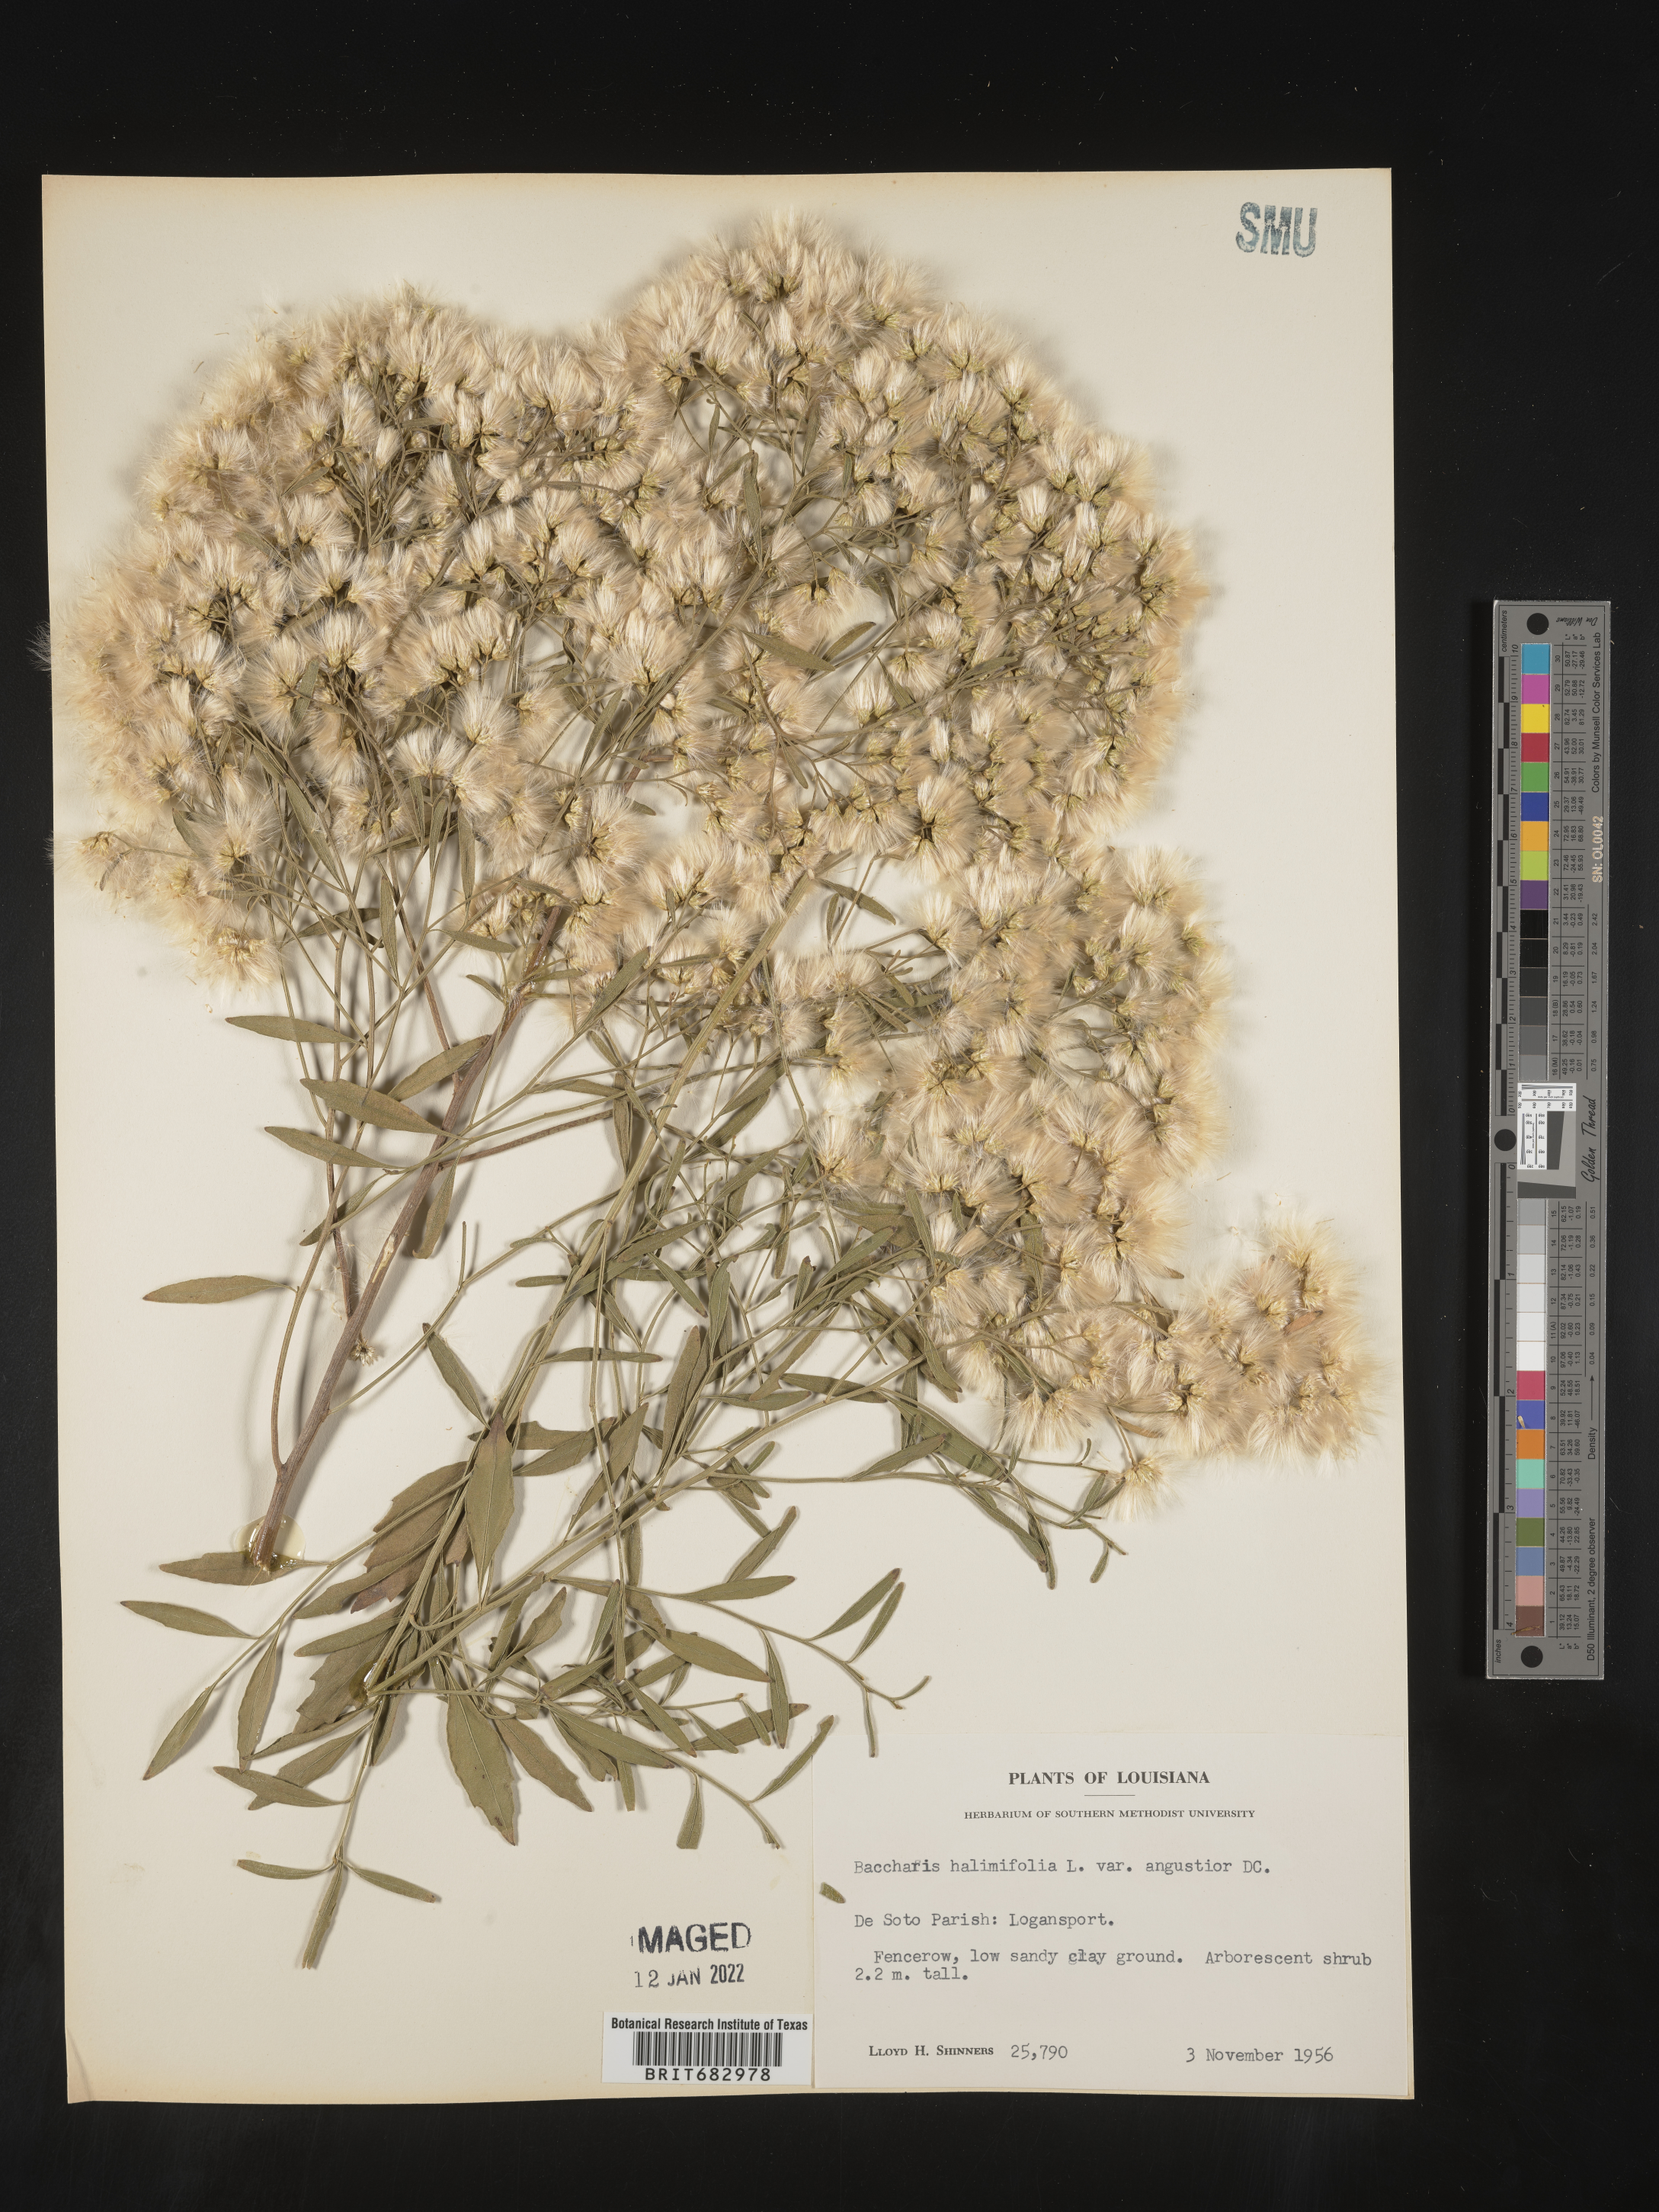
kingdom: Plantae
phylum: Tracheophyta
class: Magnoliopsida
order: Asterales
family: Asteraceae
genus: Nidorella
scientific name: Nidorella ivifolia
